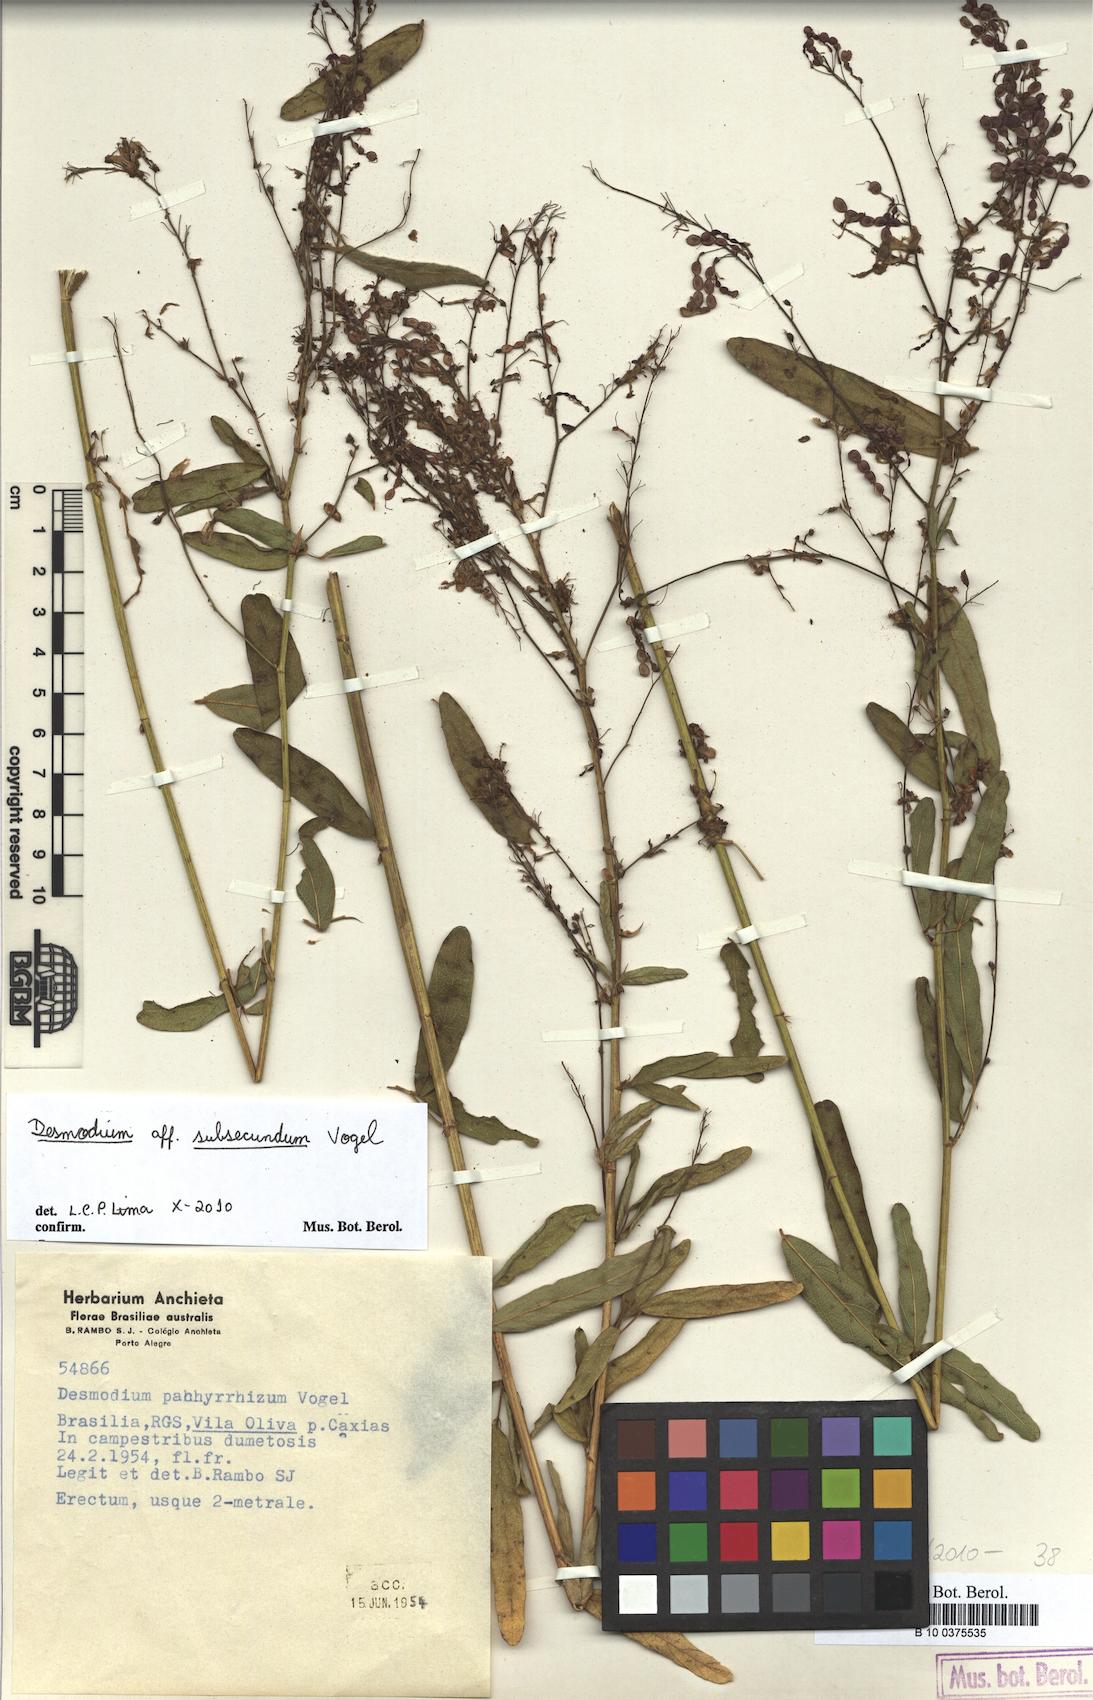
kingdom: Plantae
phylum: Tracheophyta
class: Magnoliopsida
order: Fabales
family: Fabaceae
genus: Desmodium
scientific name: Desmodium subsecundum
